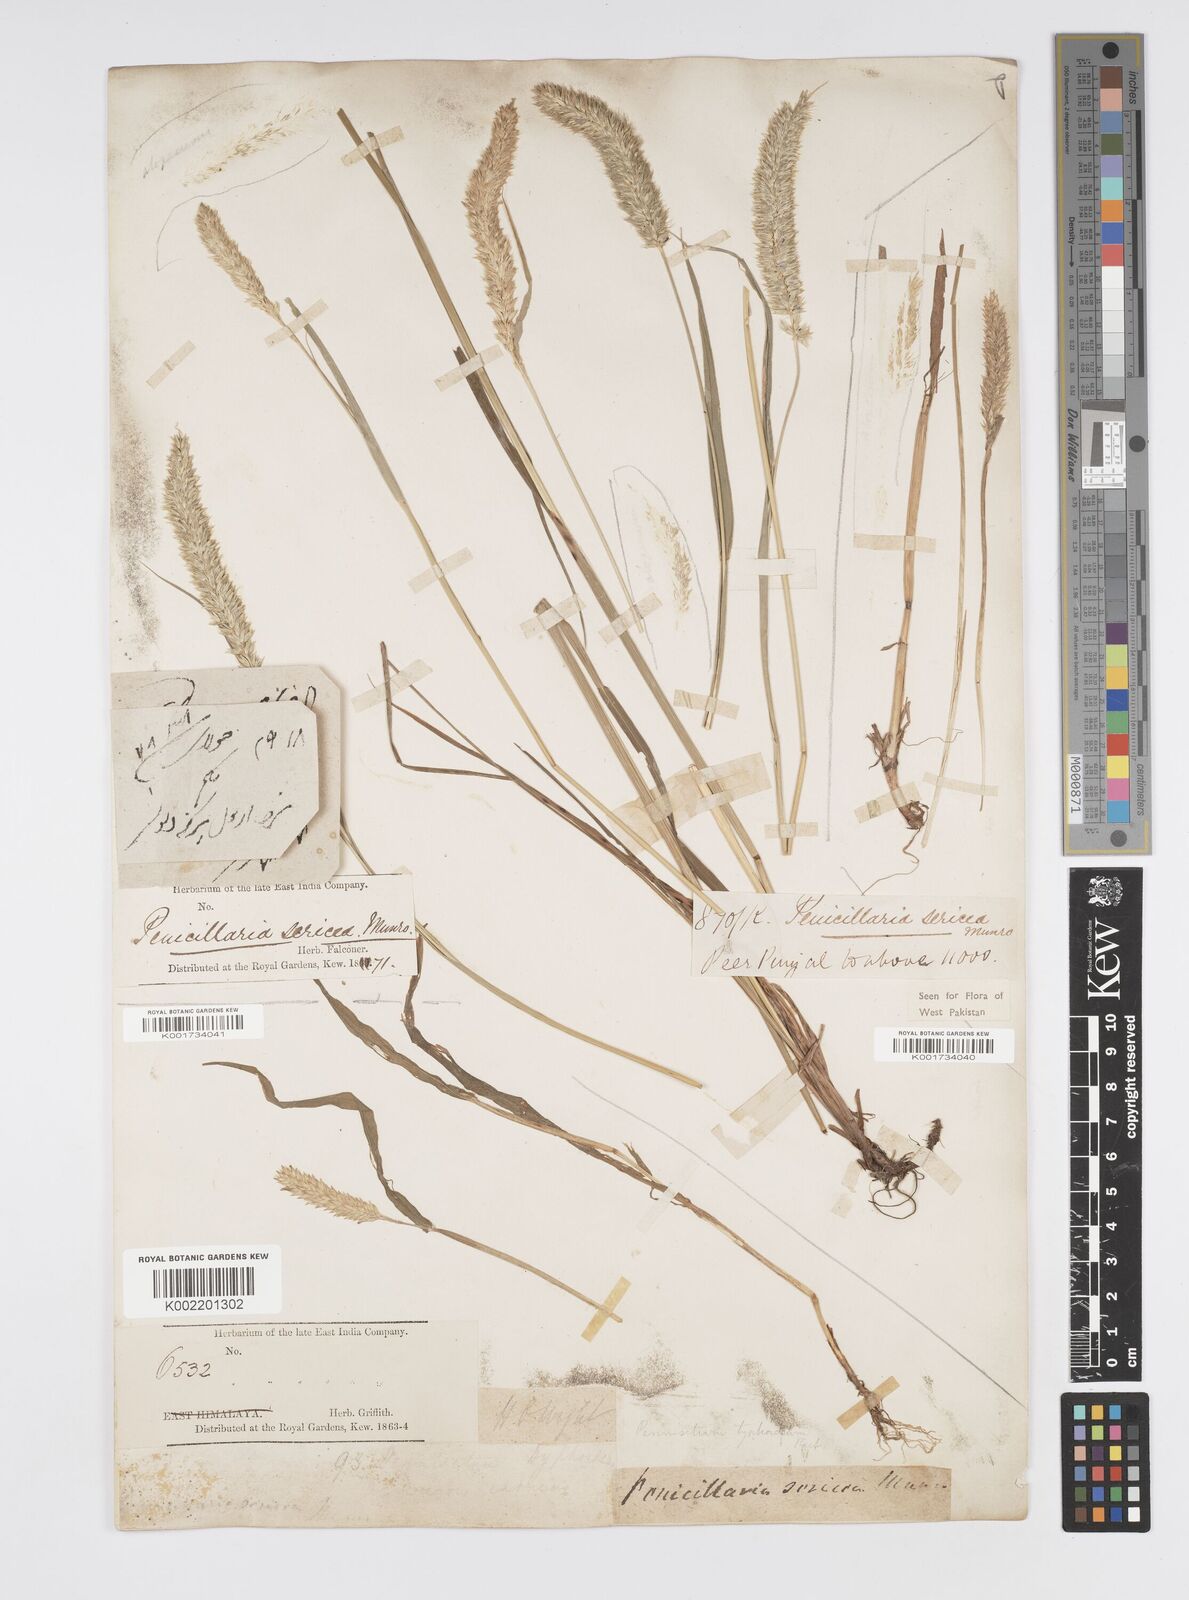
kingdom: Plantae
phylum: Tracheophyta
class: Liliopsida
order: Poales
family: Poaceae
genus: Cenchrus
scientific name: Cenchrus lanatus
